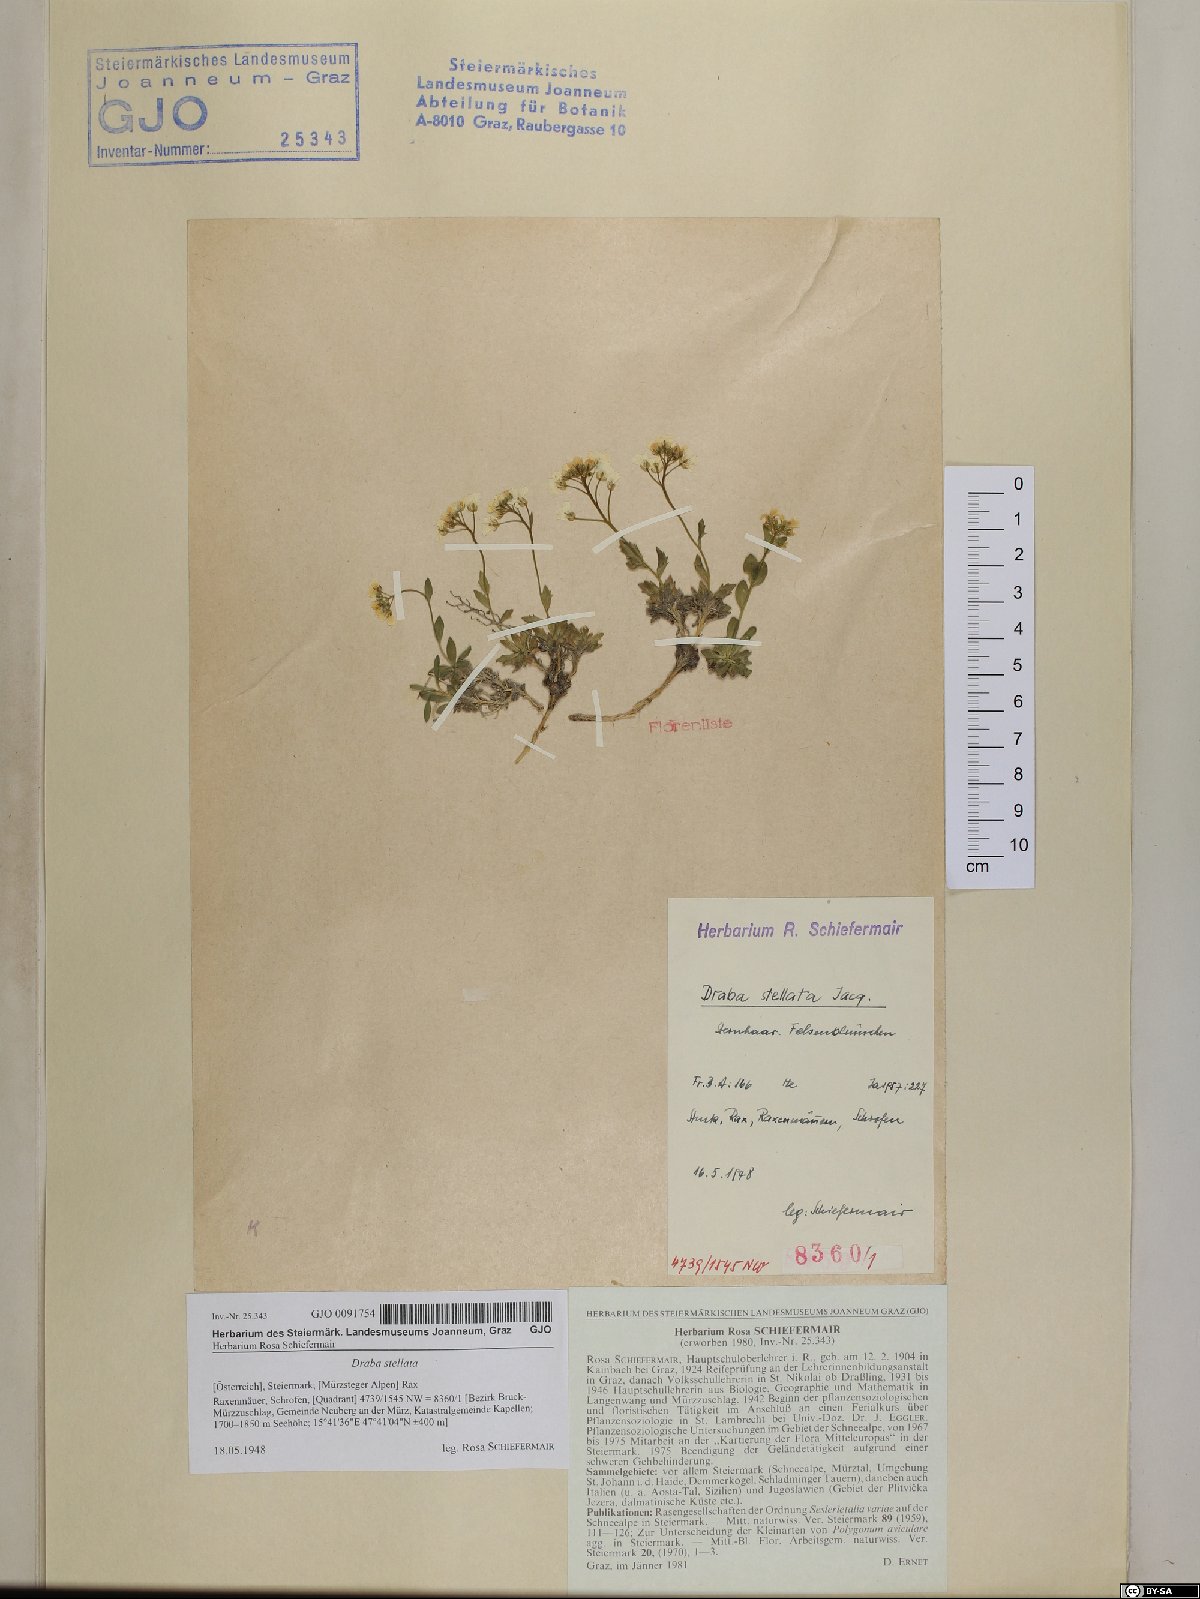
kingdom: Plantae
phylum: Tracheophyta
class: Magnoliopsida
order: Brassicales
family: Brassicaceae
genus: Draba
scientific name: Draba stellata
